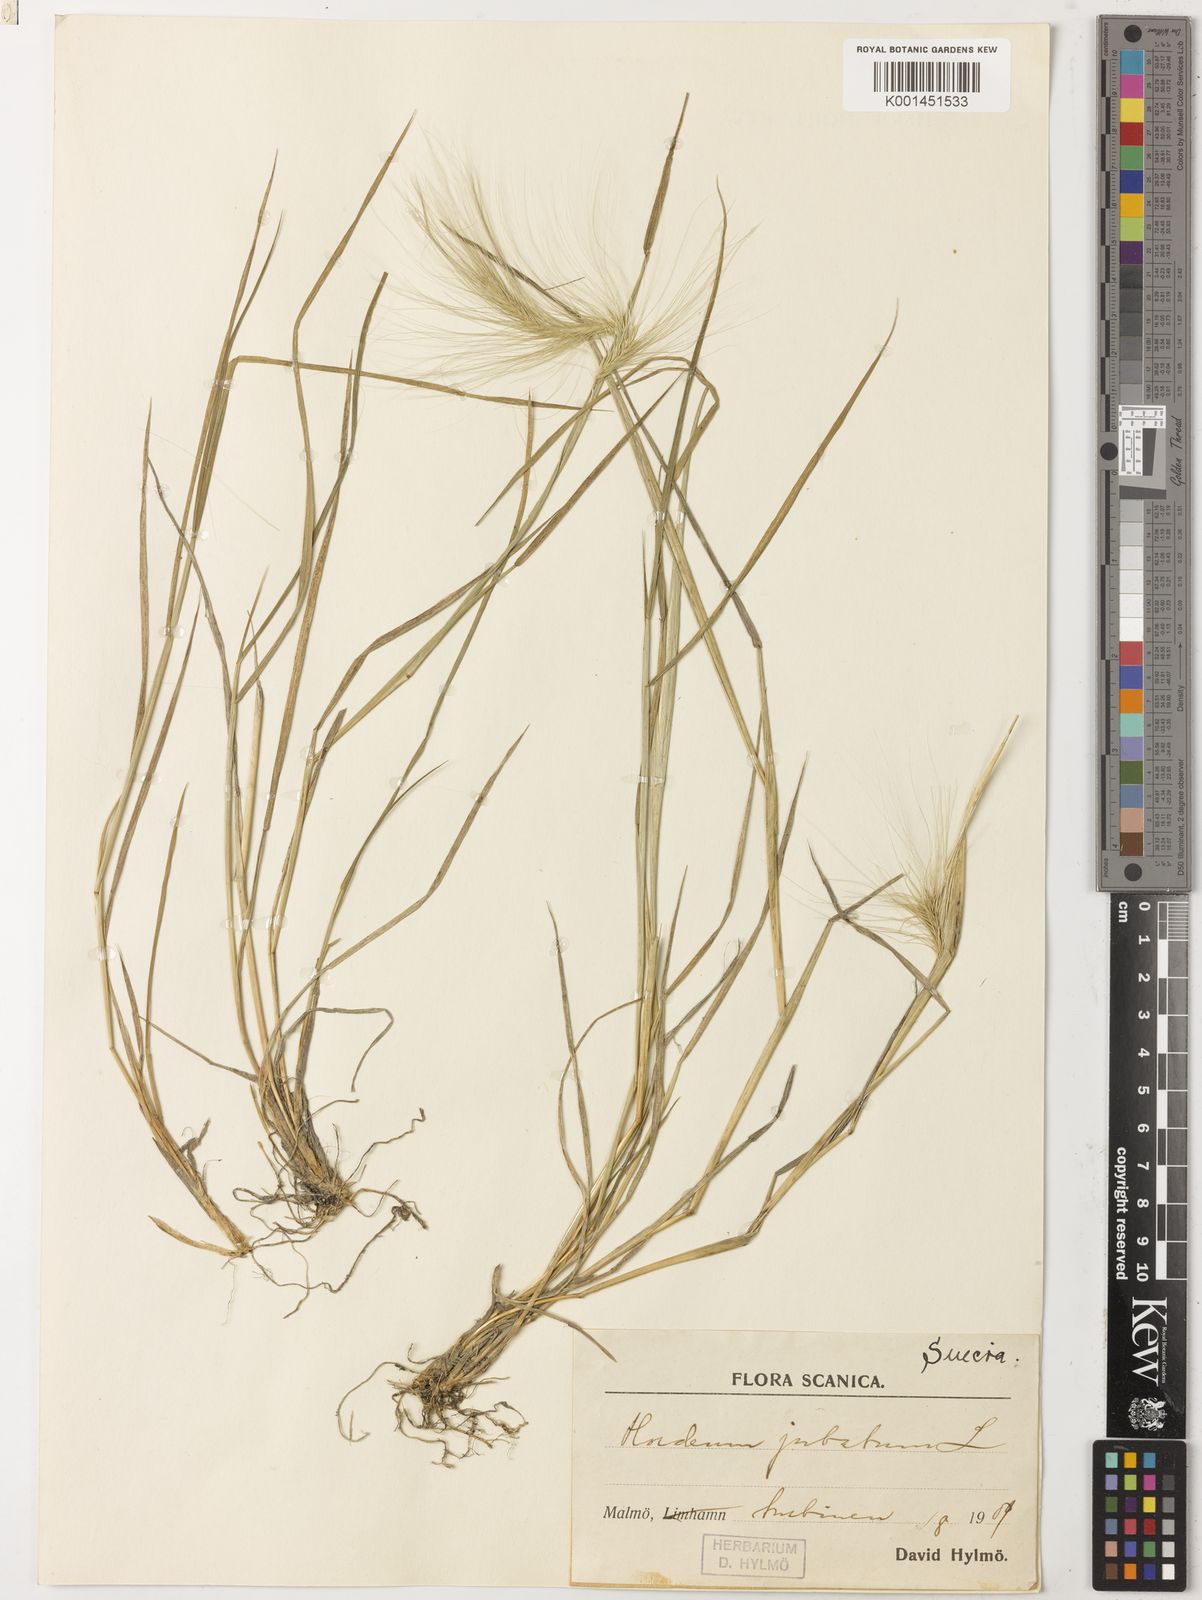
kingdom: Plantae
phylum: Tracheophyta
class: Liliopsida
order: Poales
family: Poaceae
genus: Hordeum
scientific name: Hordeum jubatum
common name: Foxtail barley
